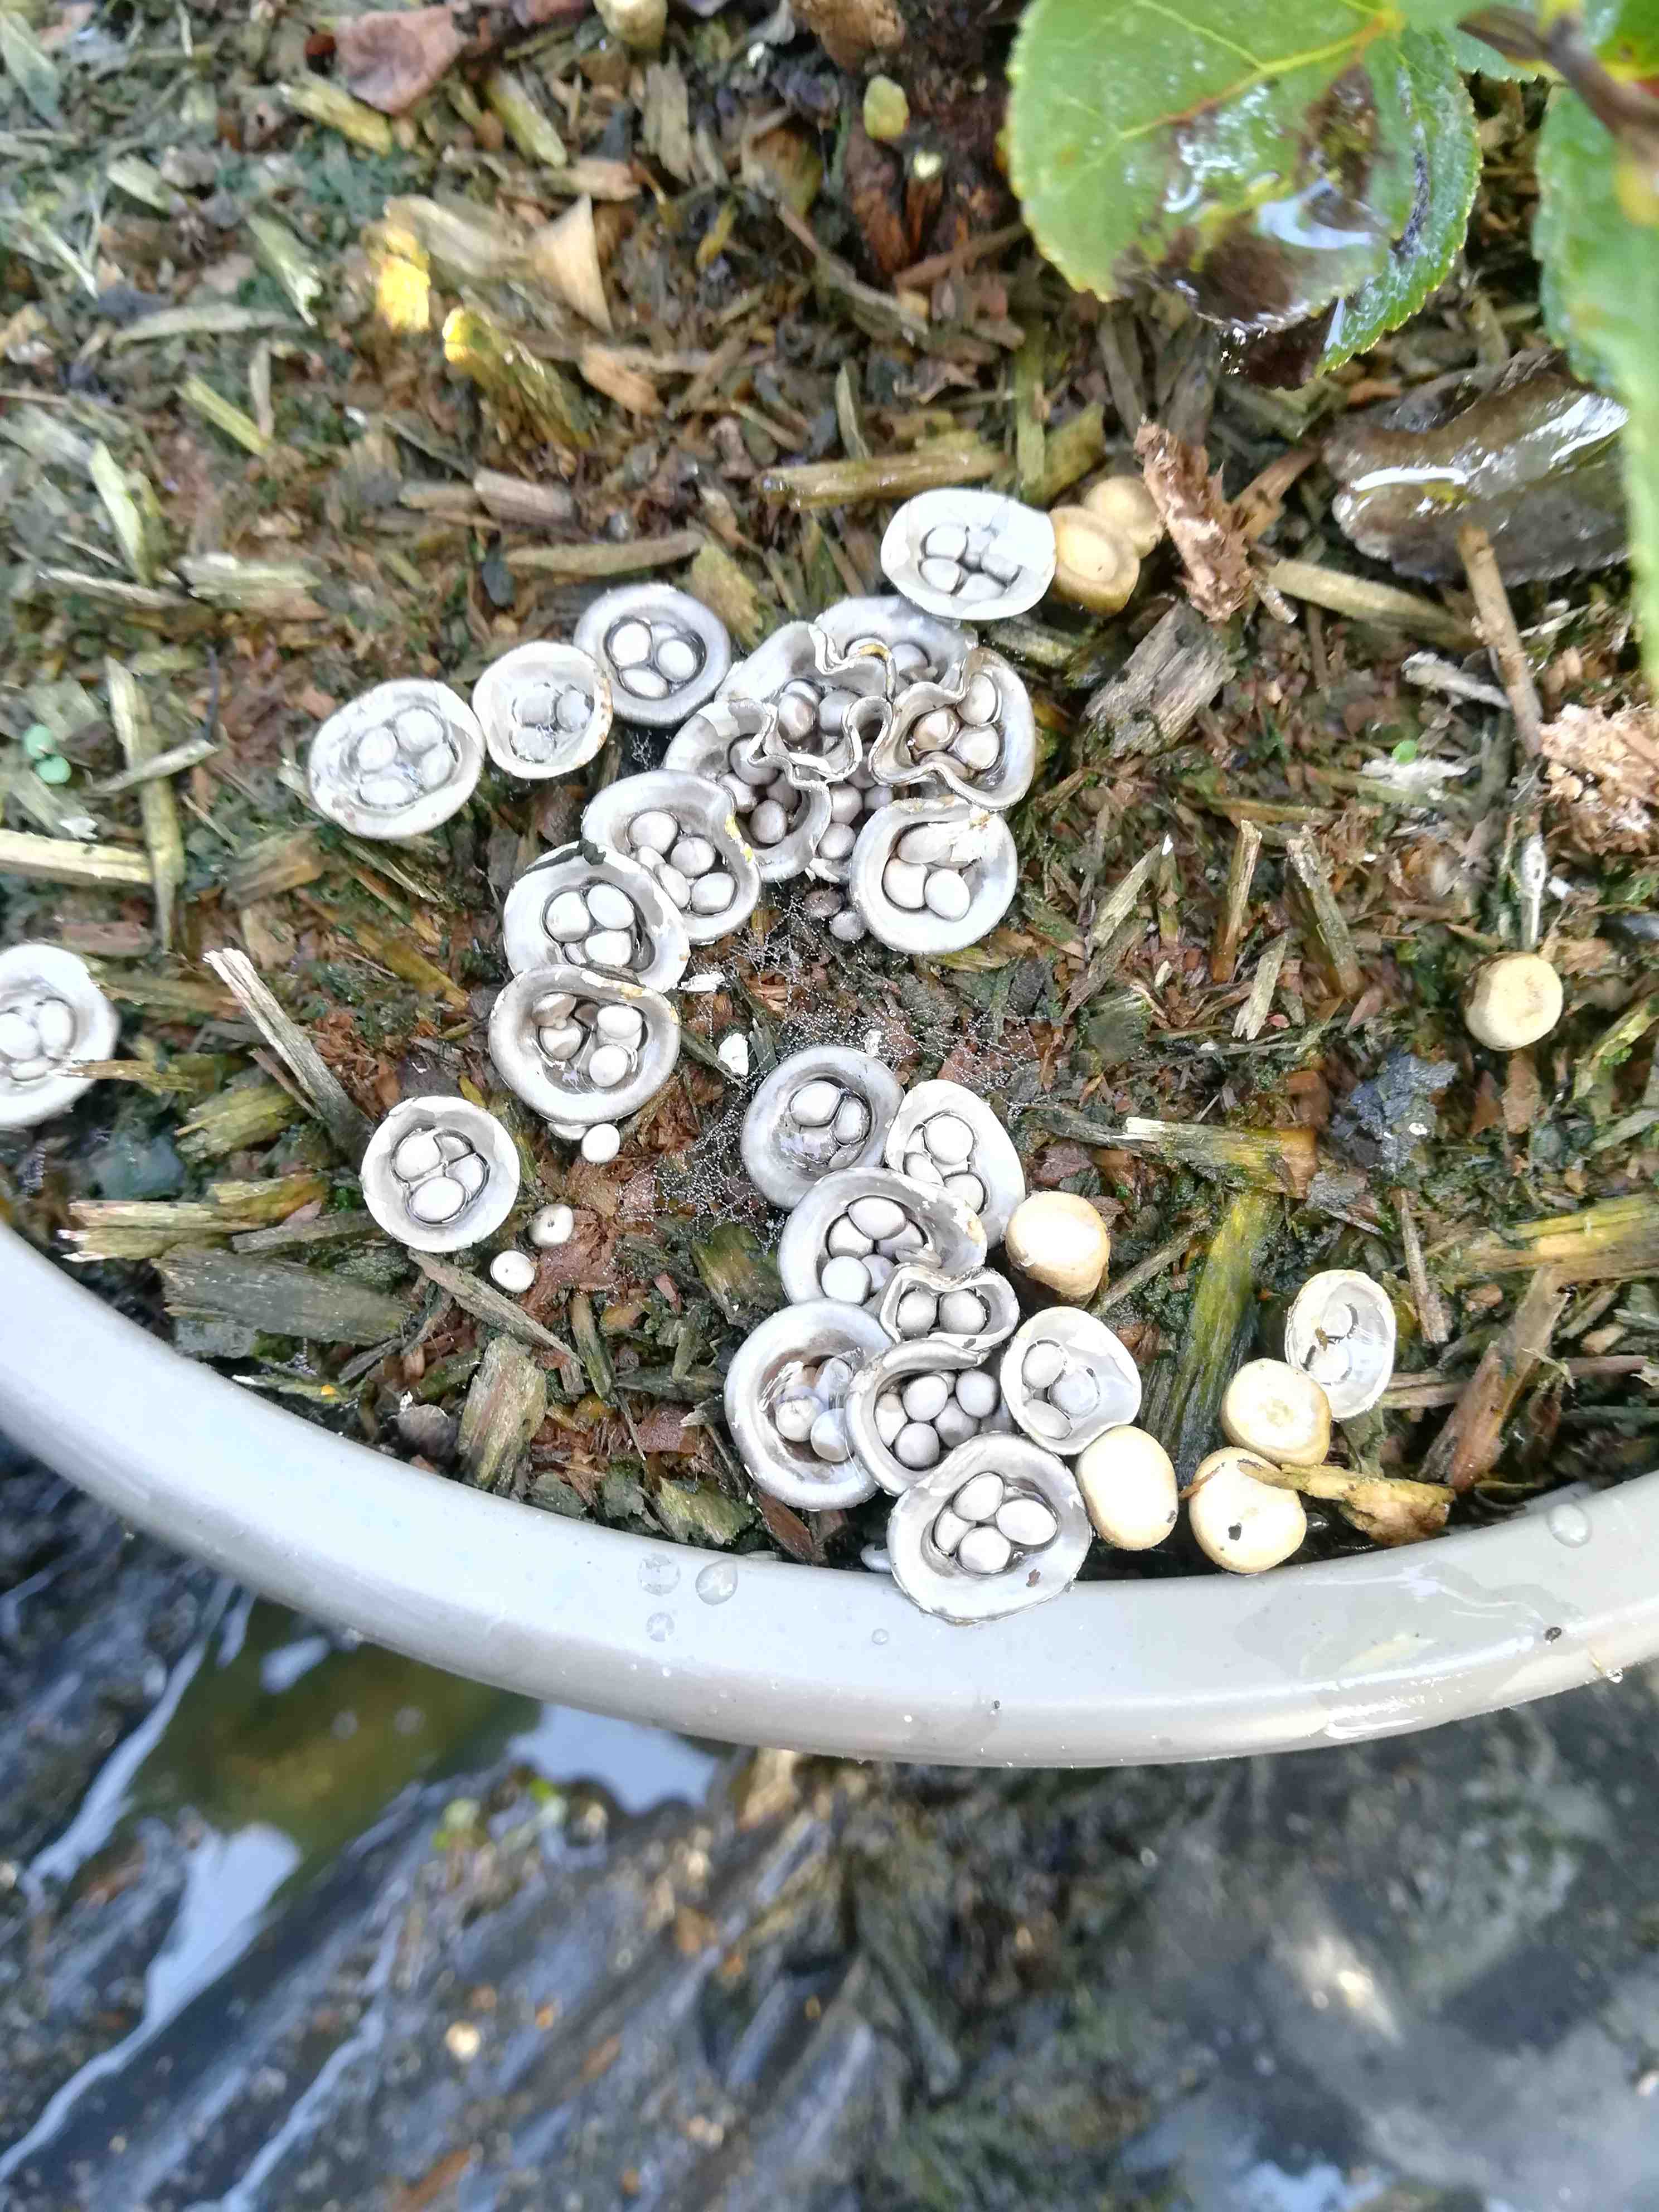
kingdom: Fungi
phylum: Basidiomycota
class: Agaricomycetes
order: Agaricales
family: Nidulariaceae
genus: Crucibulum
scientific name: Crucibulum crucibuliforme
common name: krukkesvamp
